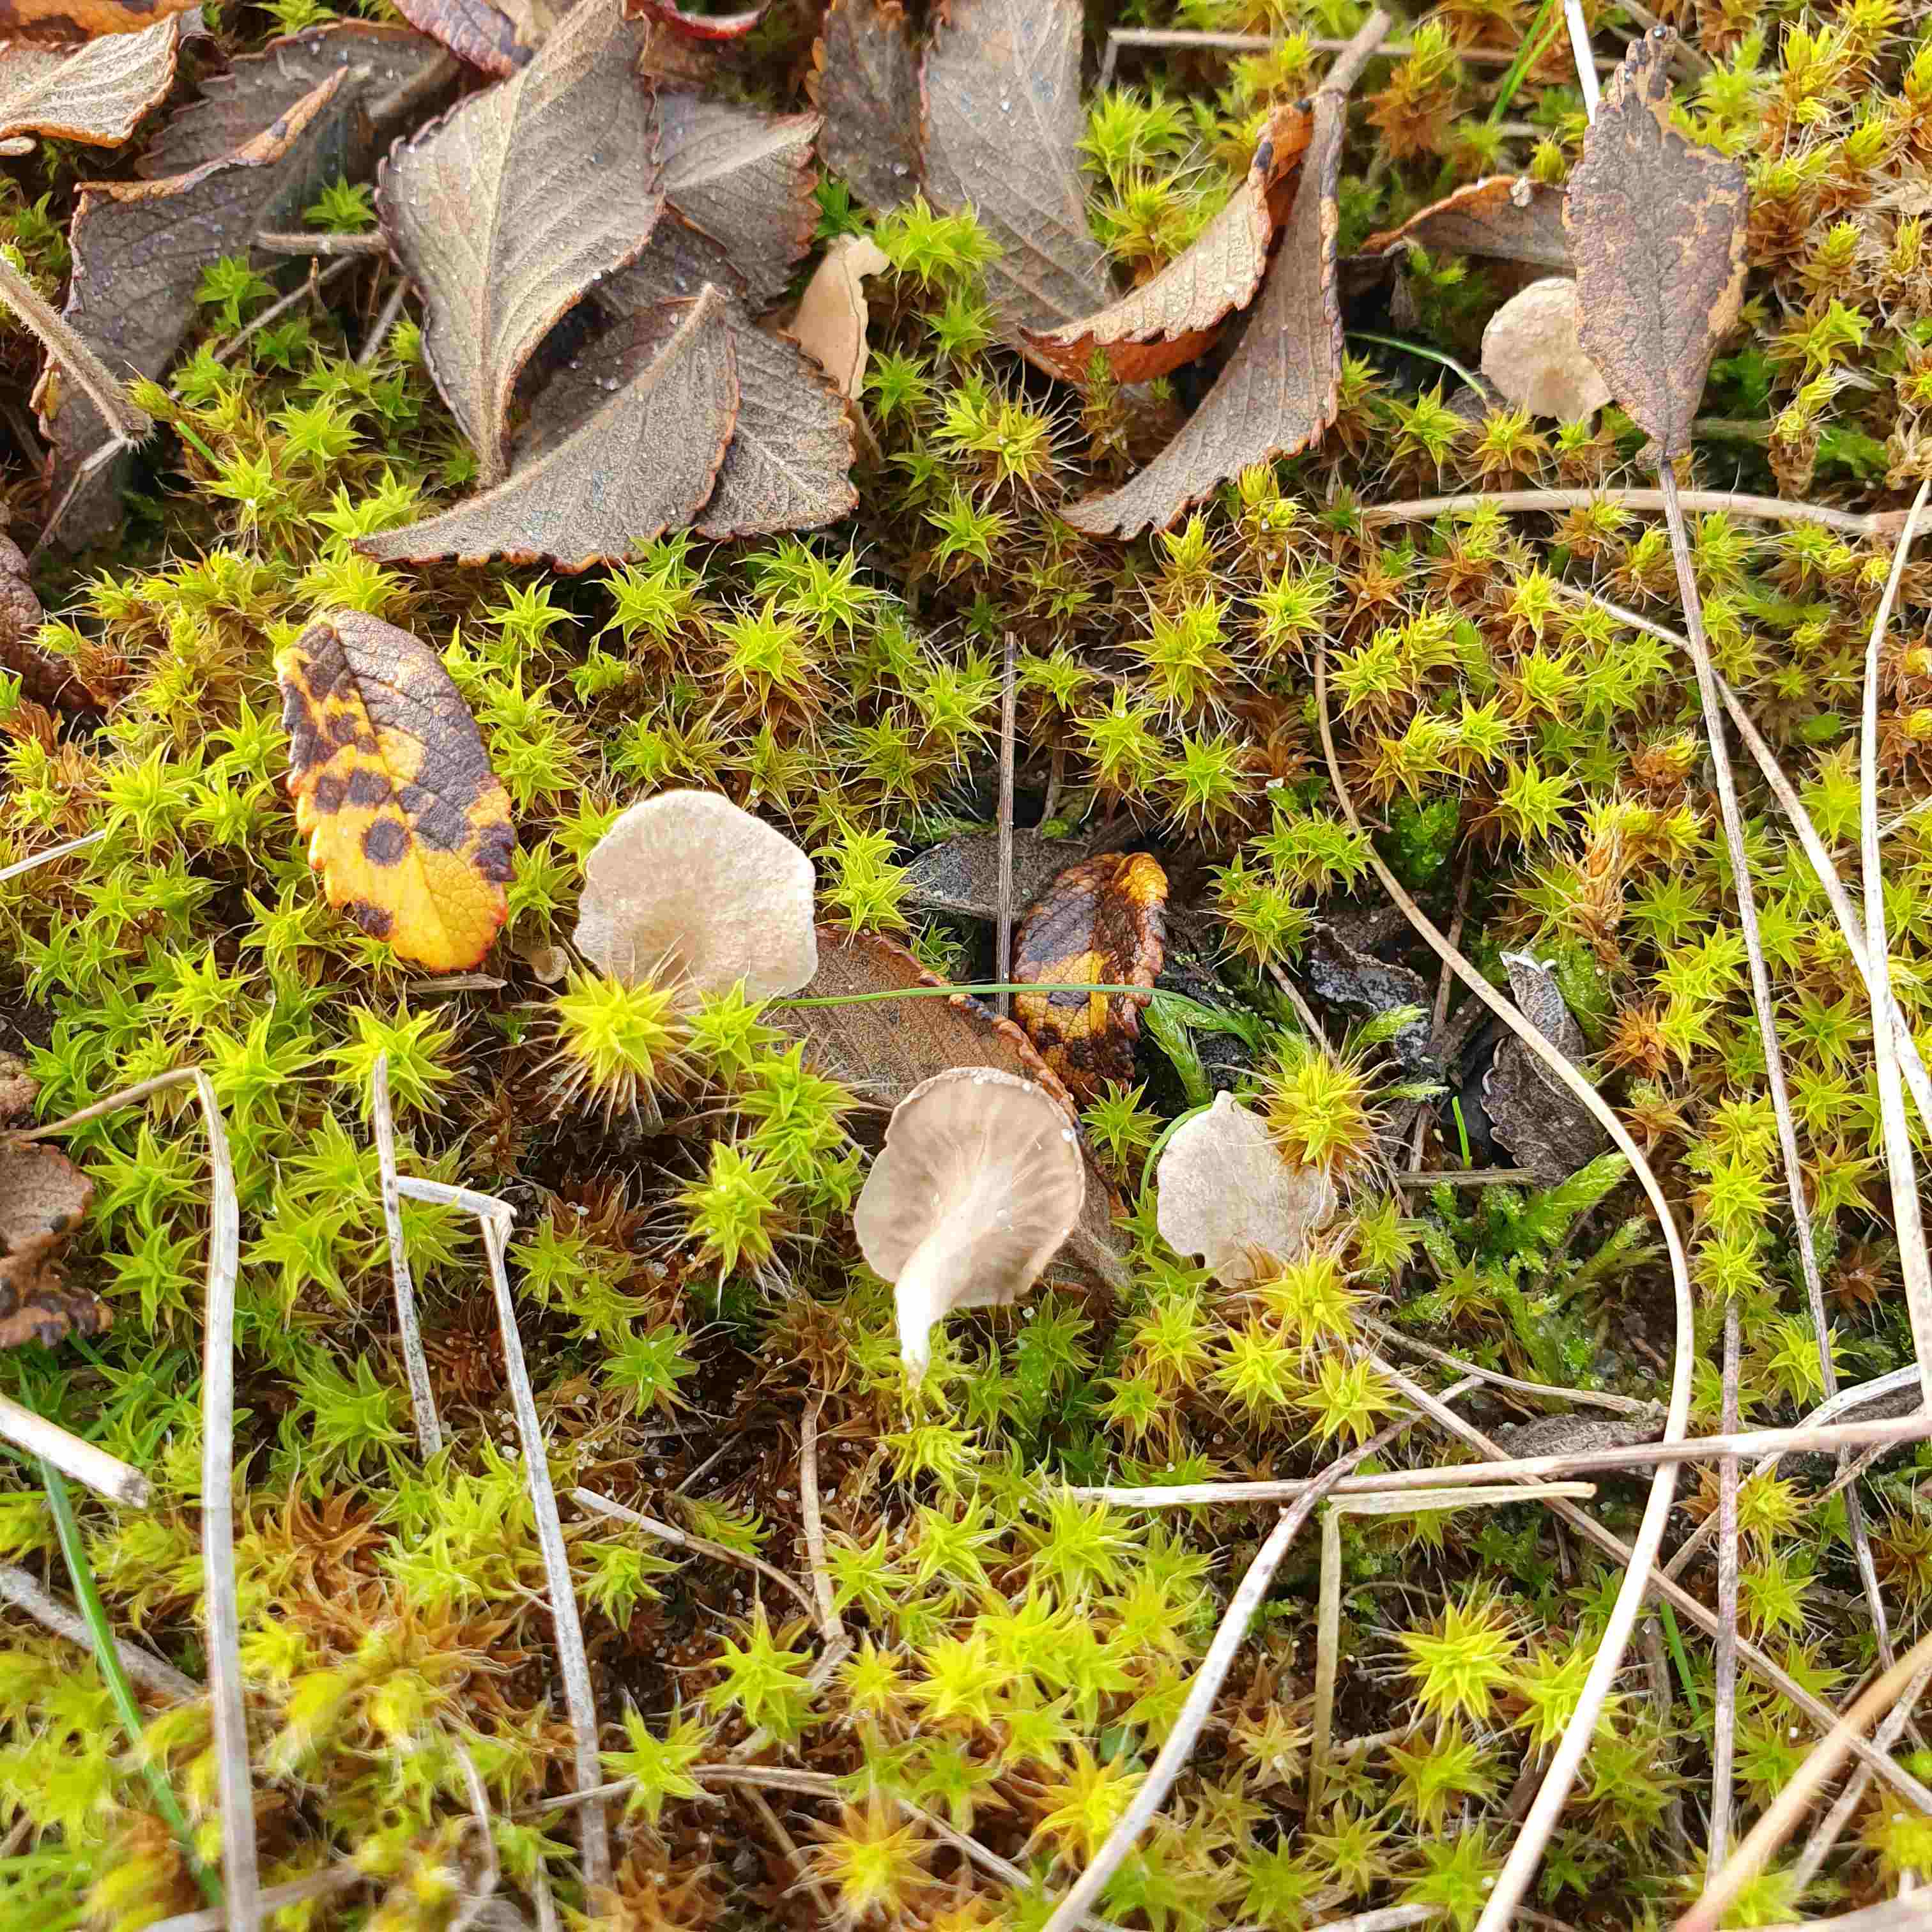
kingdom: Fungi
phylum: Basidiomycota
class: Agaricomycetes
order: Agaricales
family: Hygrophoraceae
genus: Arrhenia
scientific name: Arrhenia spathulata
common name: skæv fontænehat
